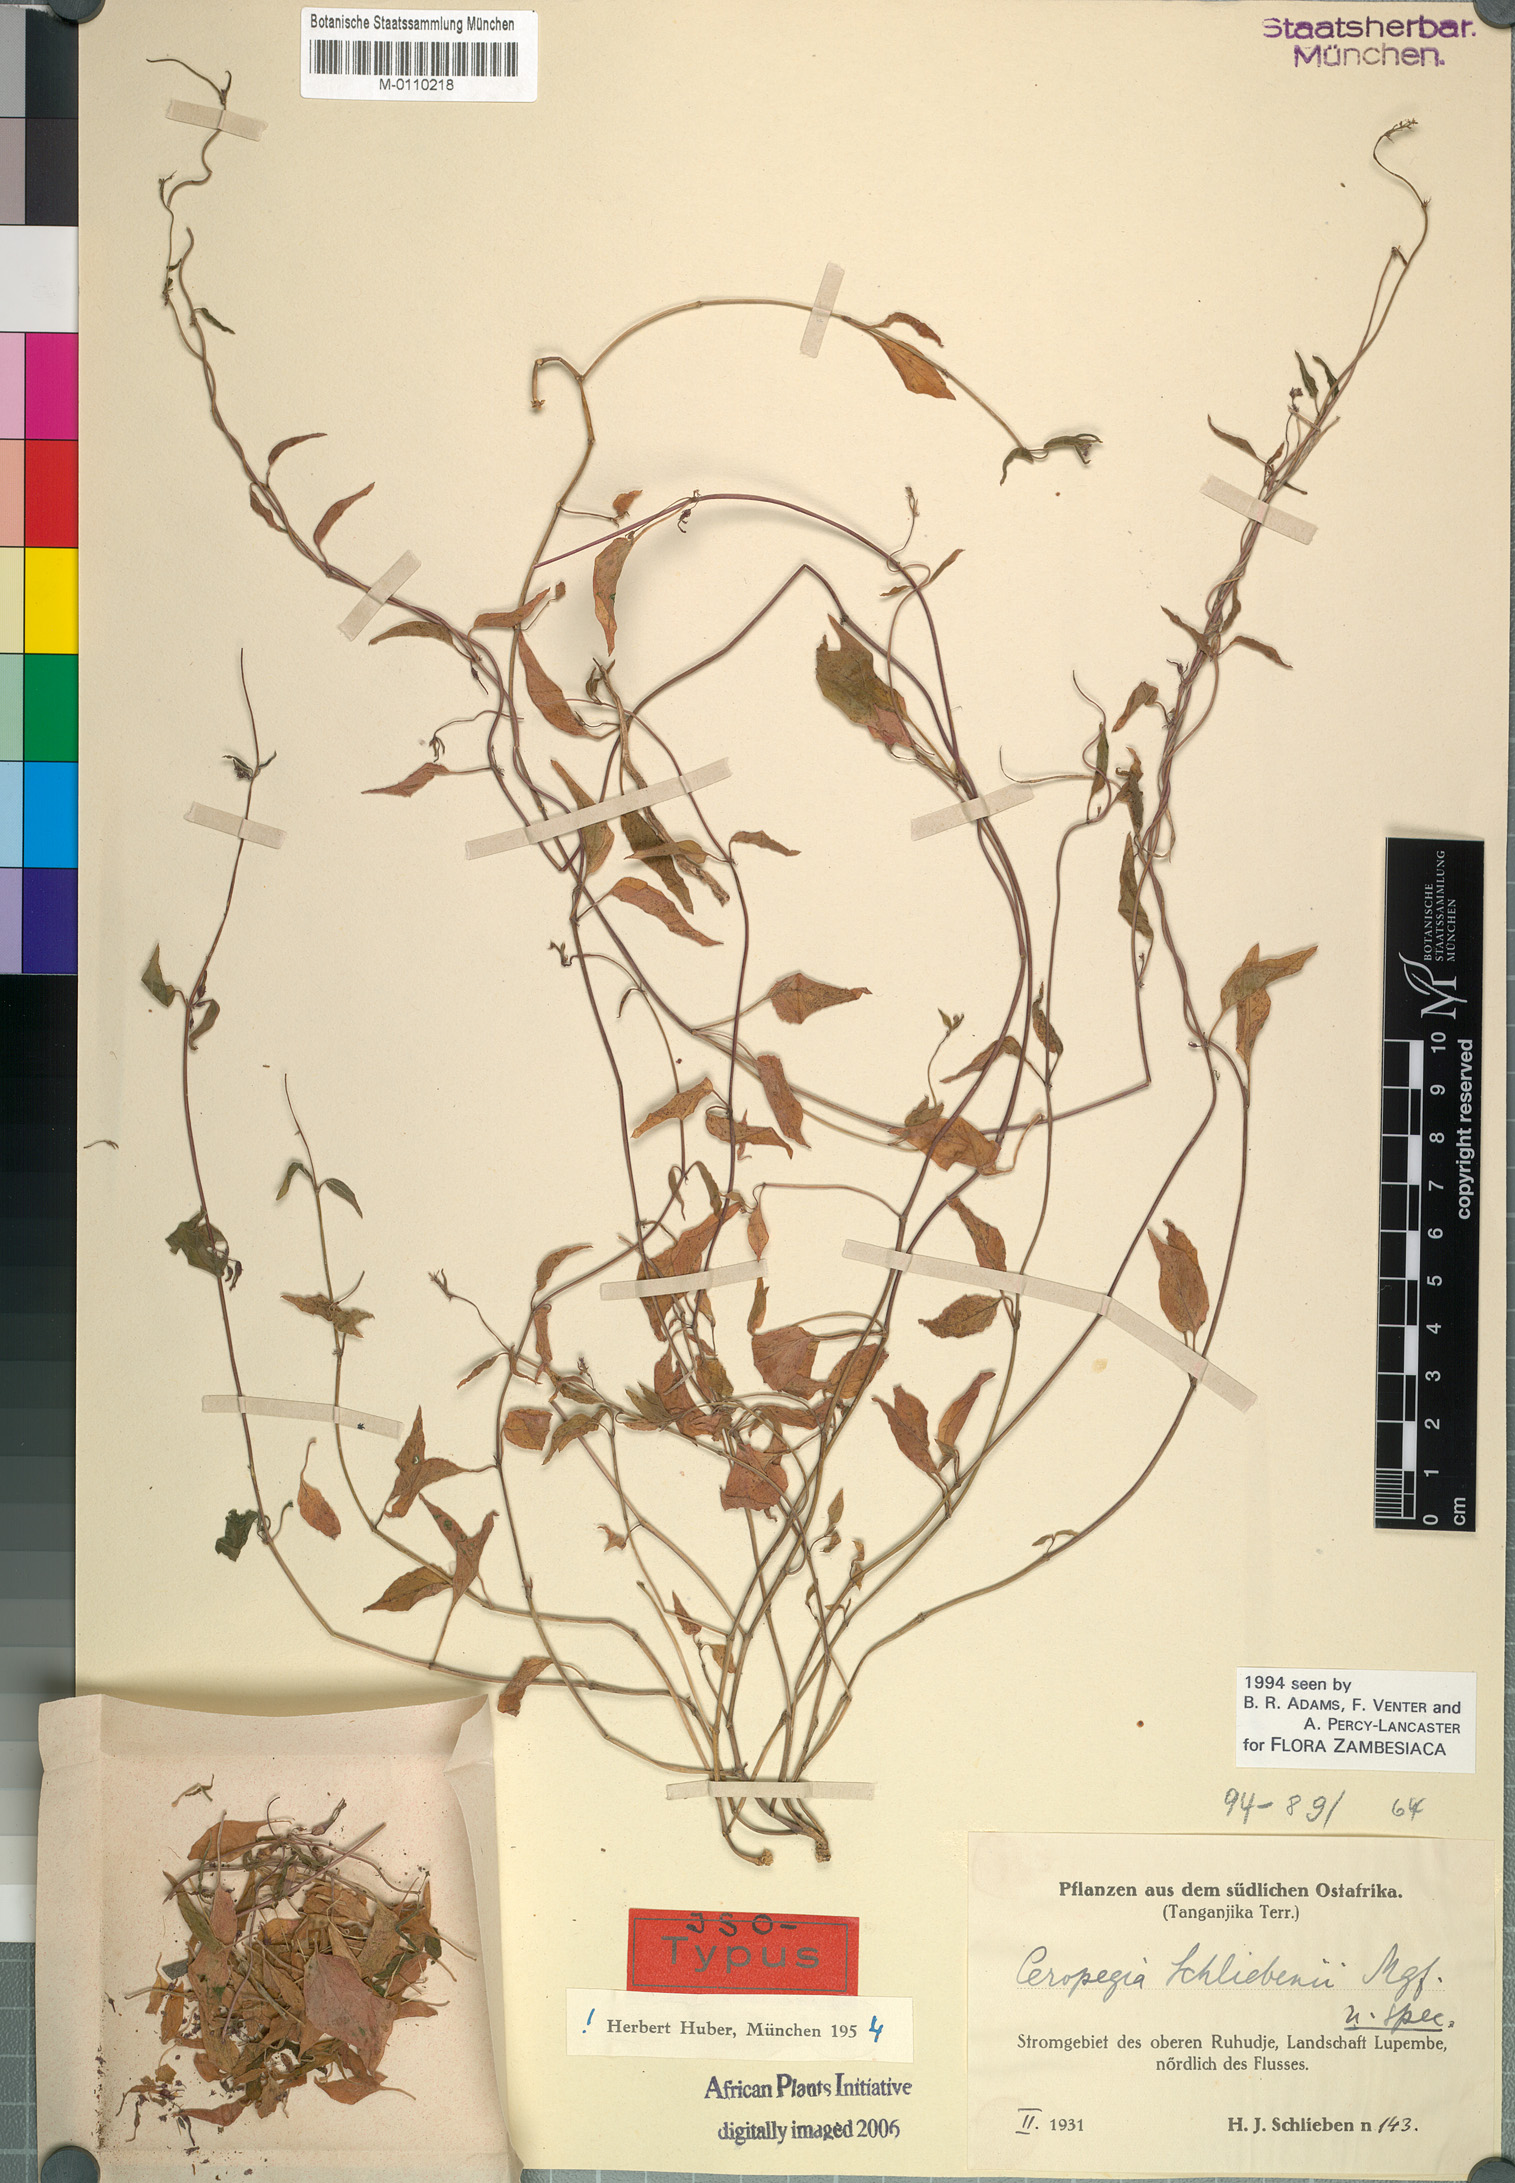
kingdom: Plantae
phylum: Tracheophyta
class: Magnoliopsida
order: Gentianales
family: Apocynaceae
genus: Ceropegia
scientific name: Ceropegia schliebenii
